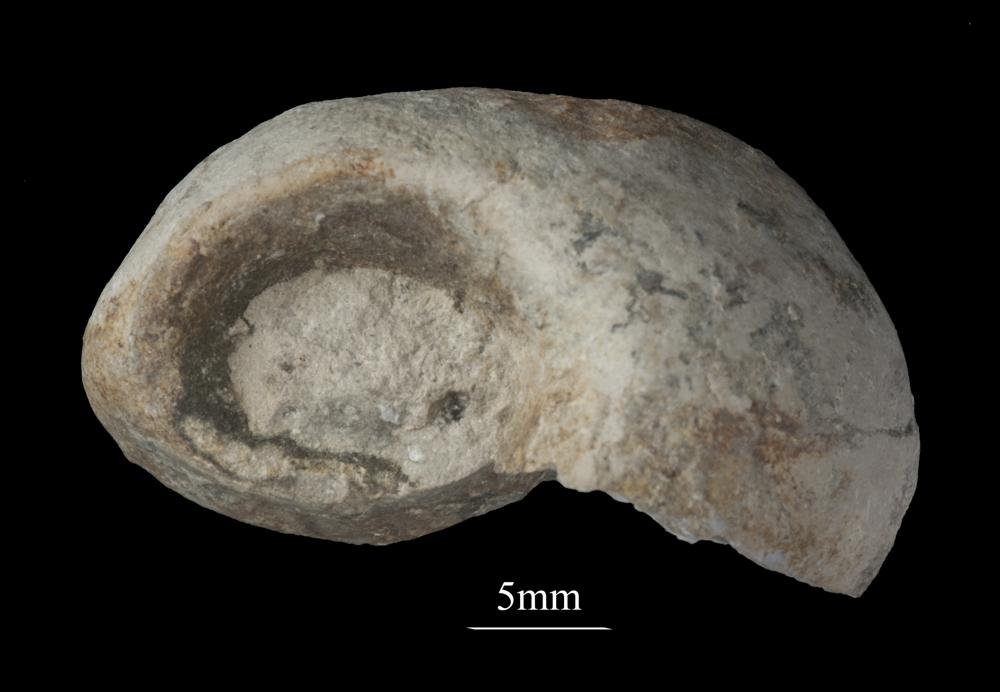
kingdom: Animalia
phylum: Mollusca
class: Gastropoda
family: Bellerophontidae
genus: Bellerophon
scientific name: Bellerophon
